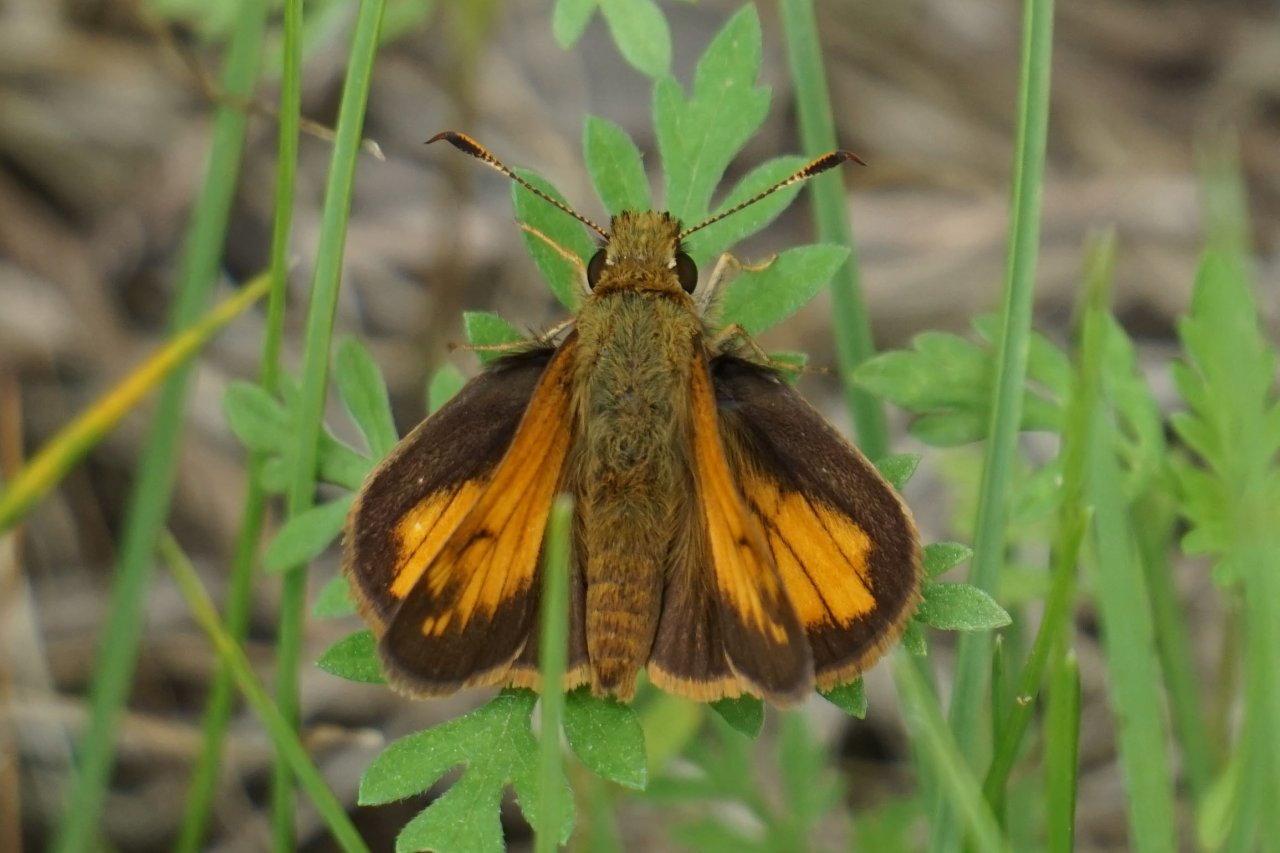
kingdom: Animalia
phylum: Arthropoda
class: Insecta
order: Lepidoptera
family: Hesperiidae
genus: Lon
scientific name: Lon hobomok
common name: Hobomok Skipper
